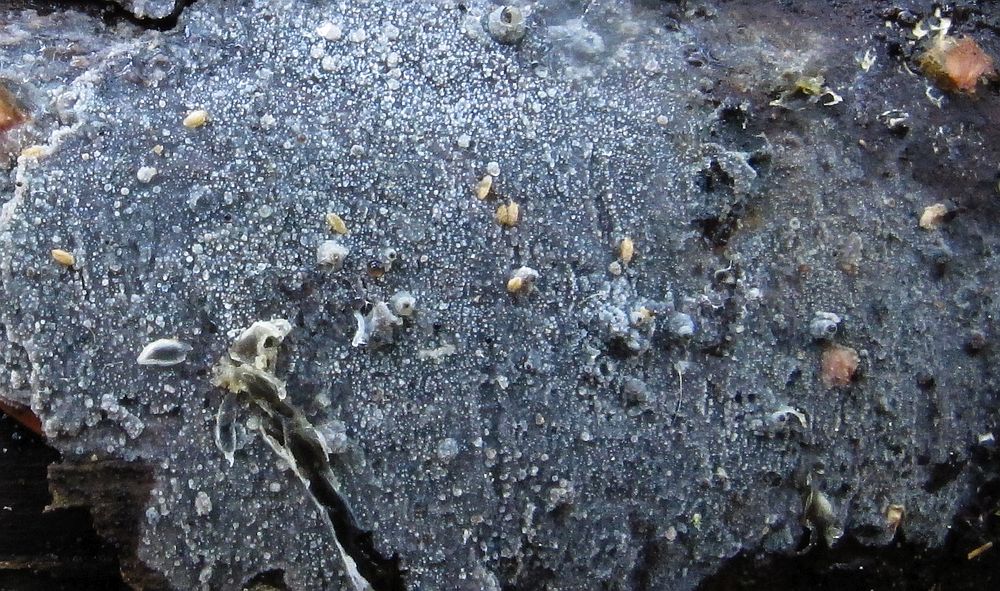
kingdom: Fungi
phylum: Basidiomycota
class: Agaricomycetes
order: Polyporales
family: Meruliaceae
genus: Scopuloides
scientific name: Scopuloides rimosa
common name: dughinde
